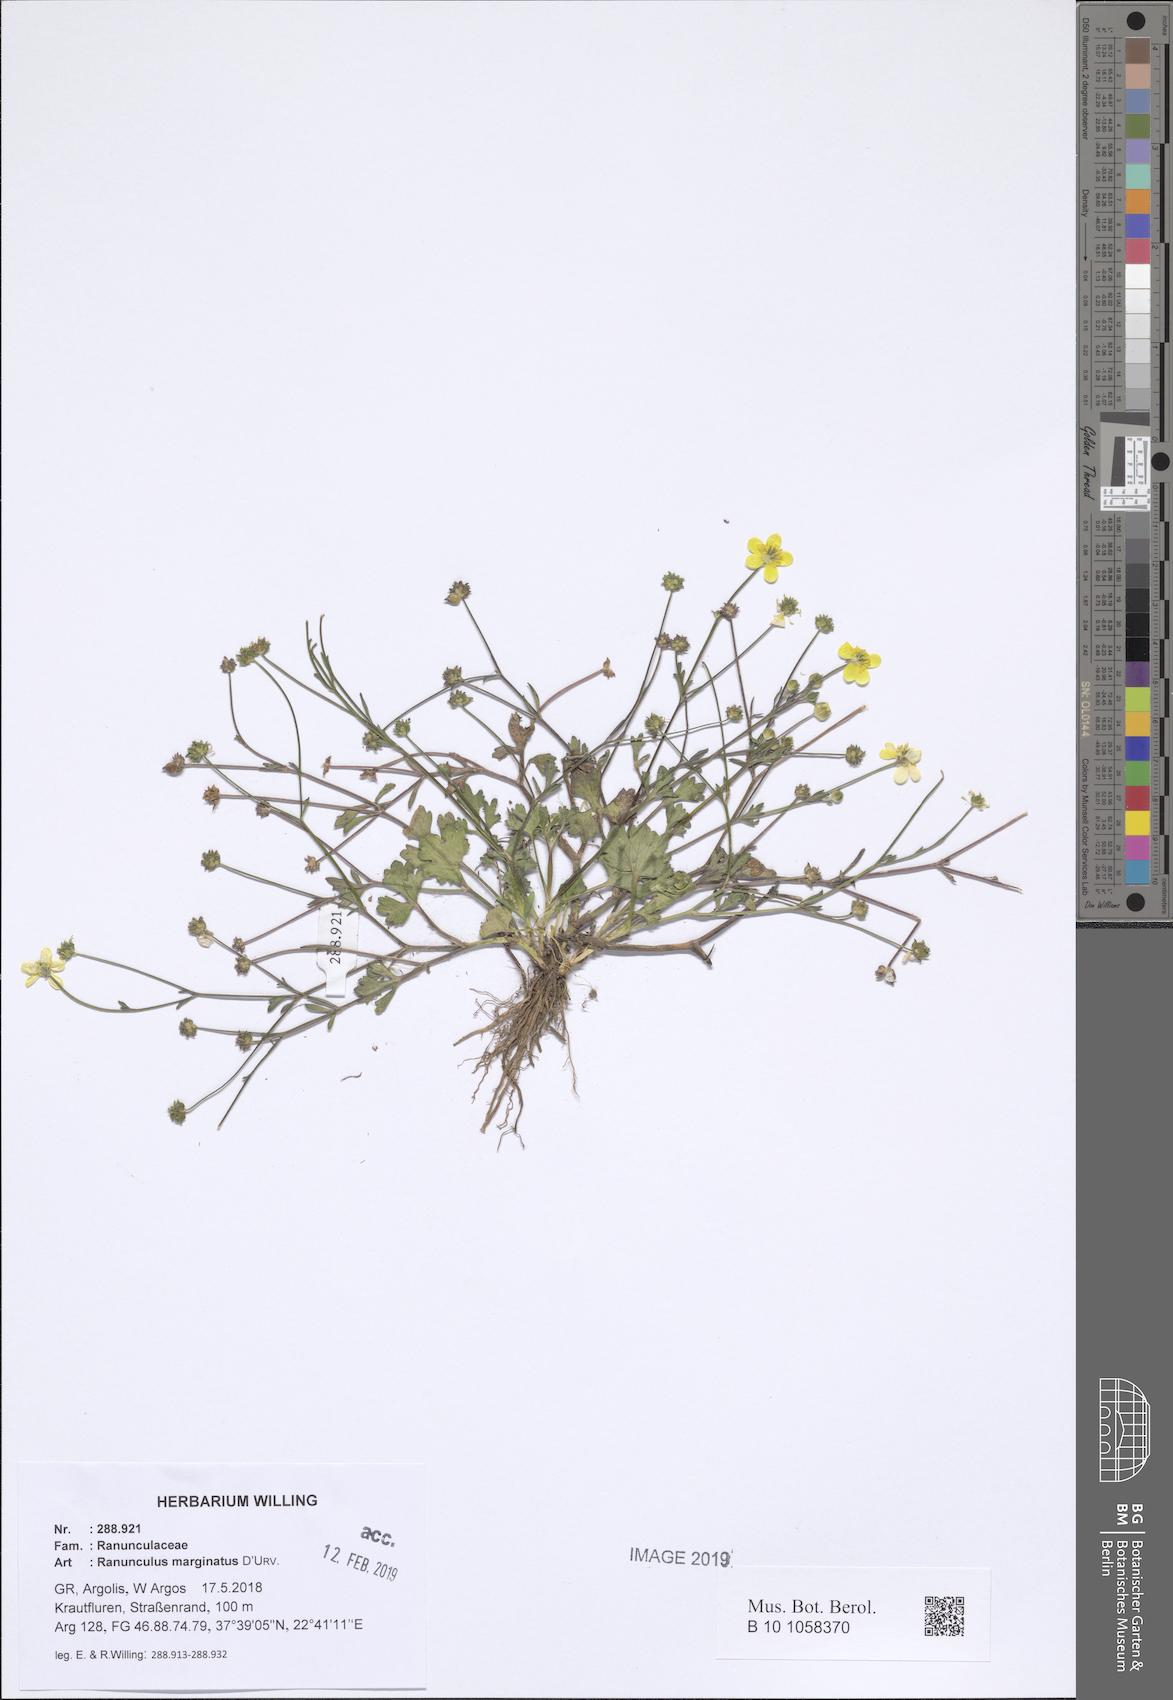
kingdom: Plantae
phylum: Tracheophyta
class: Magnoliopsida
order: Ranunculales
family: Ranunculaceae
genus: Ranunculus
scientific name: Ranunculus marginatus
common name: St. martin's buttercup
